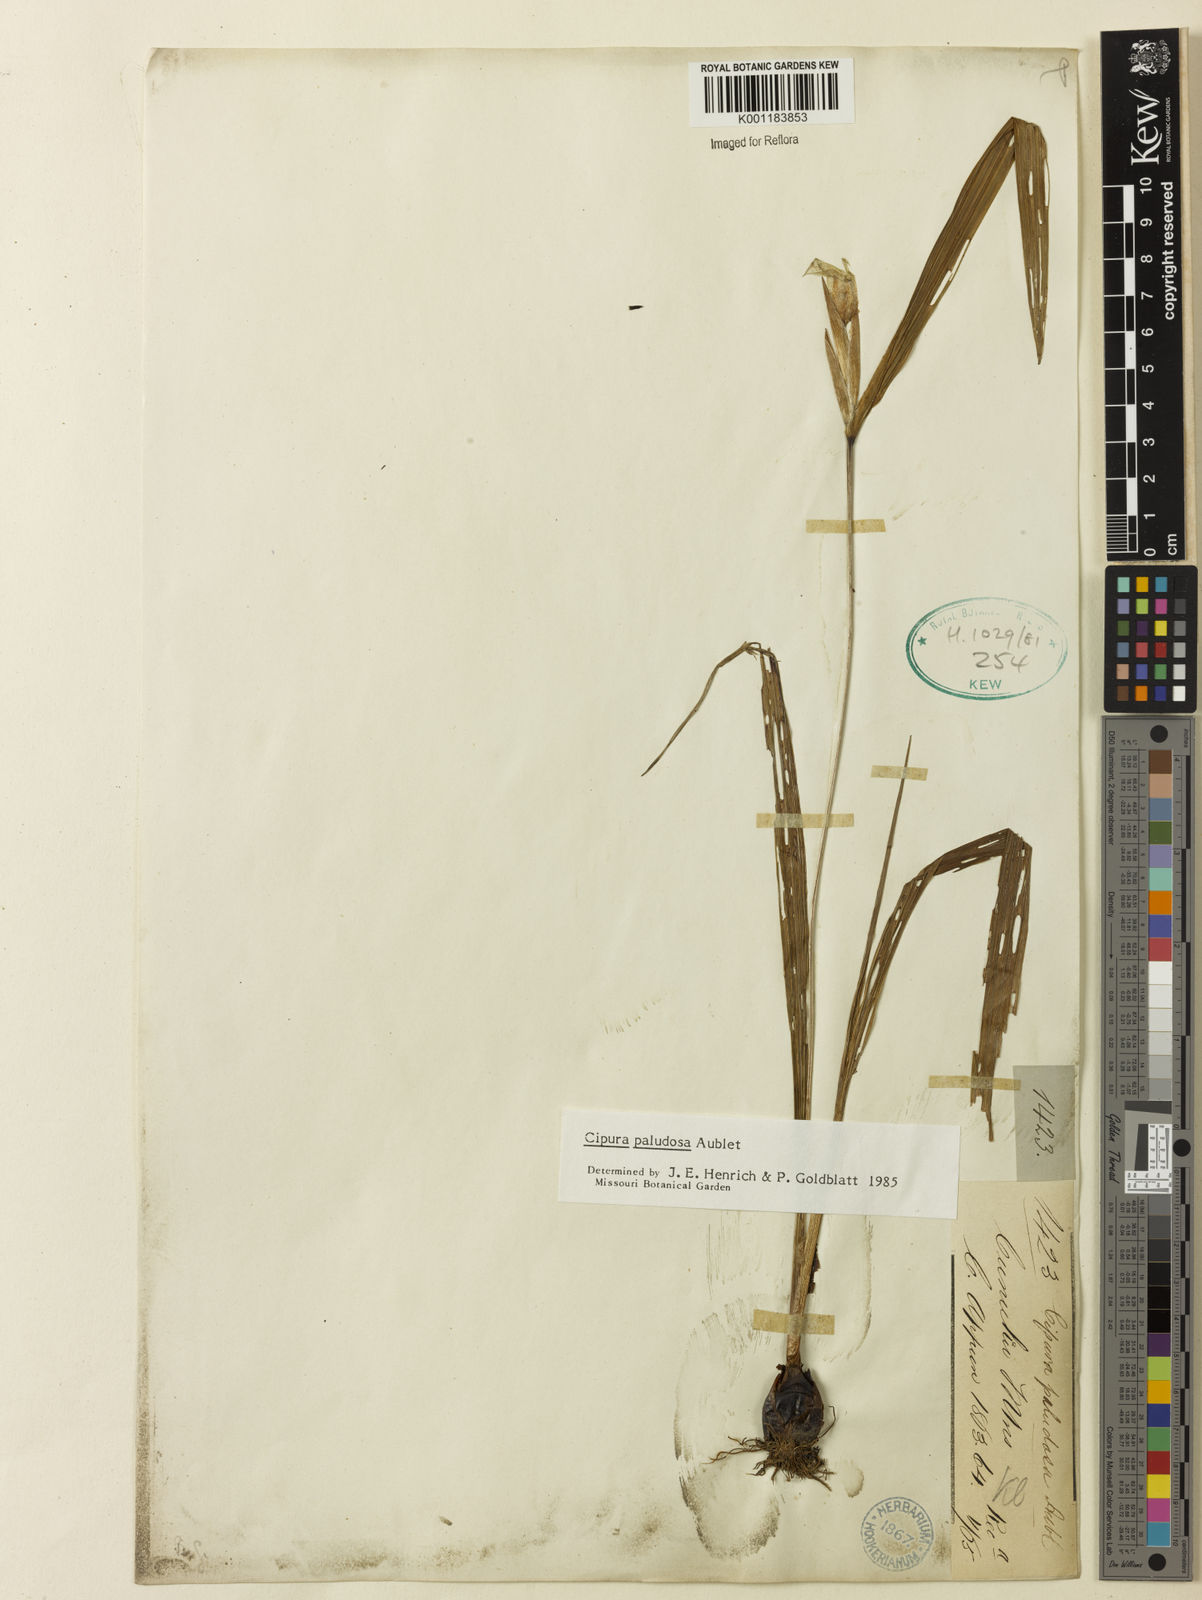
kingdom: Plantae
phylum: Tracheophyta
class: Liliopsida
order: Asparagales
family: Iridaceae
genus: Cipura
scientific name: Cipura paludosa
